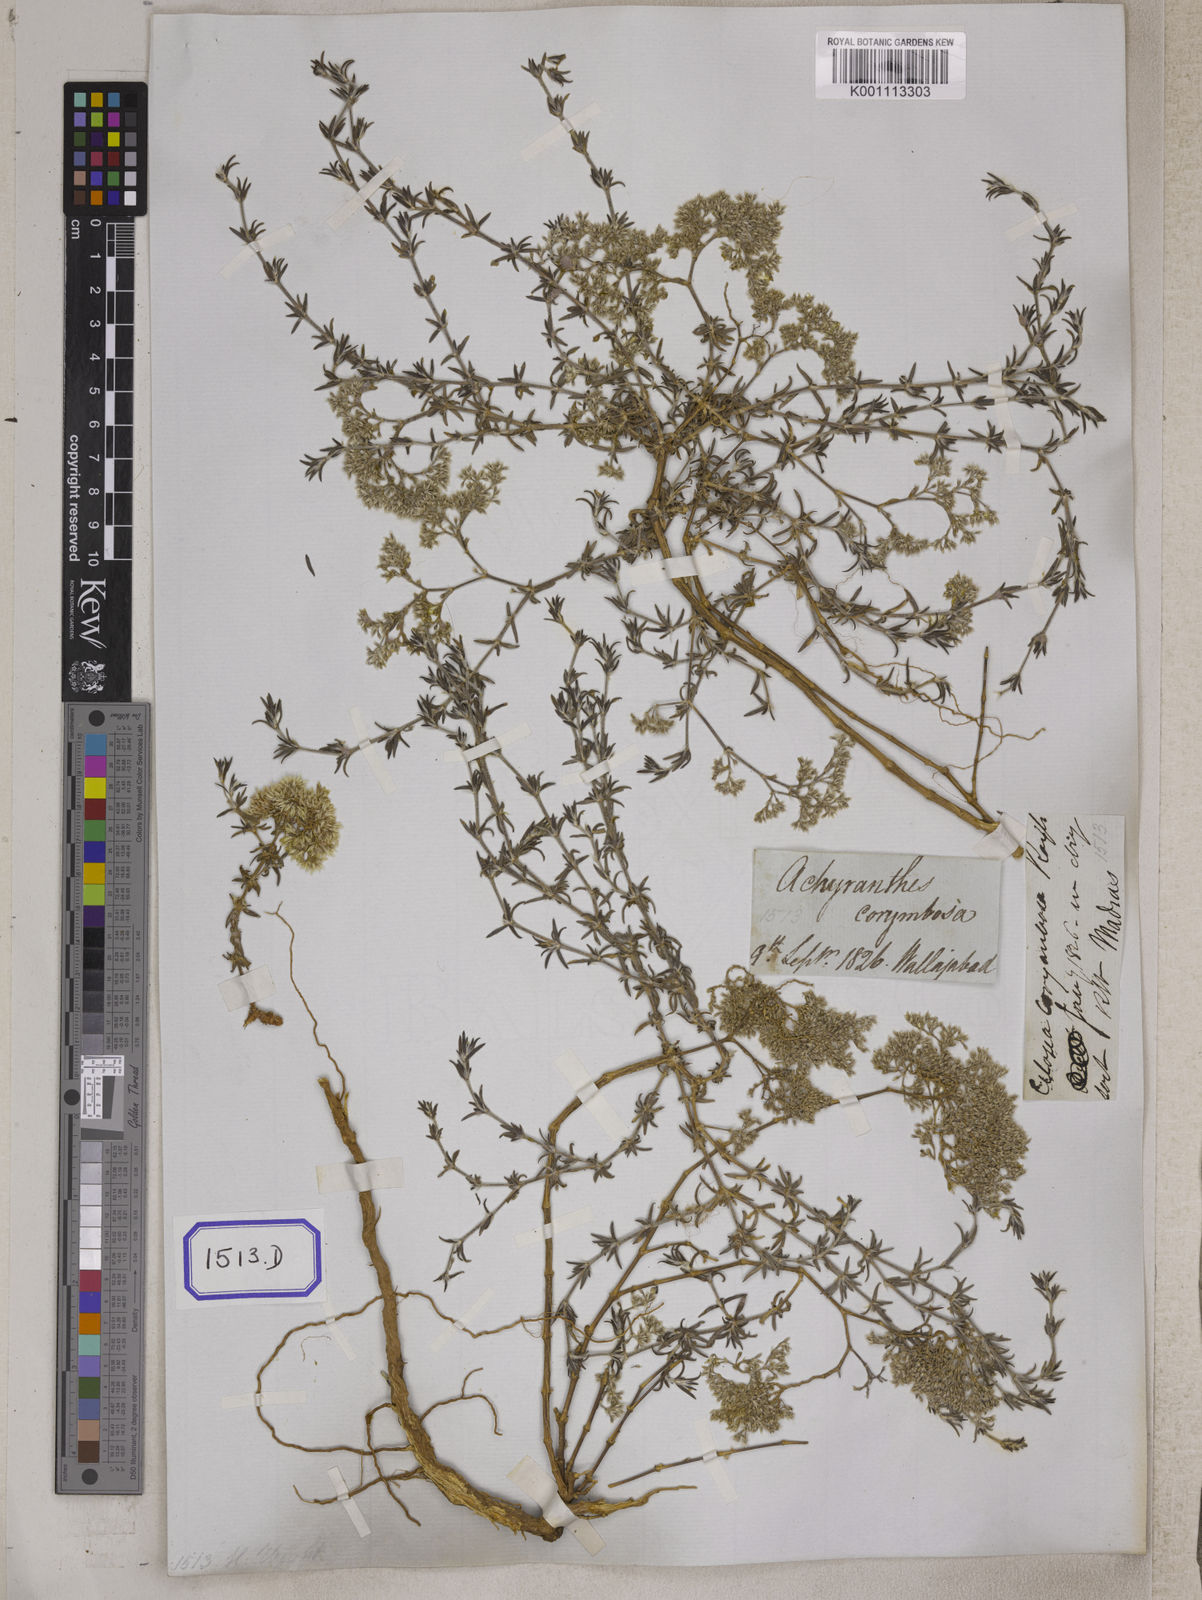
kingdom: Plantae
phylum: Tracheophyta
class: Magnoliopsida
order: Caryophyllales
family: Caryophyllaceae
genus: Polycarpaea
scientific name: Polycarpaea corymbosa
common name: Oldman's cap
